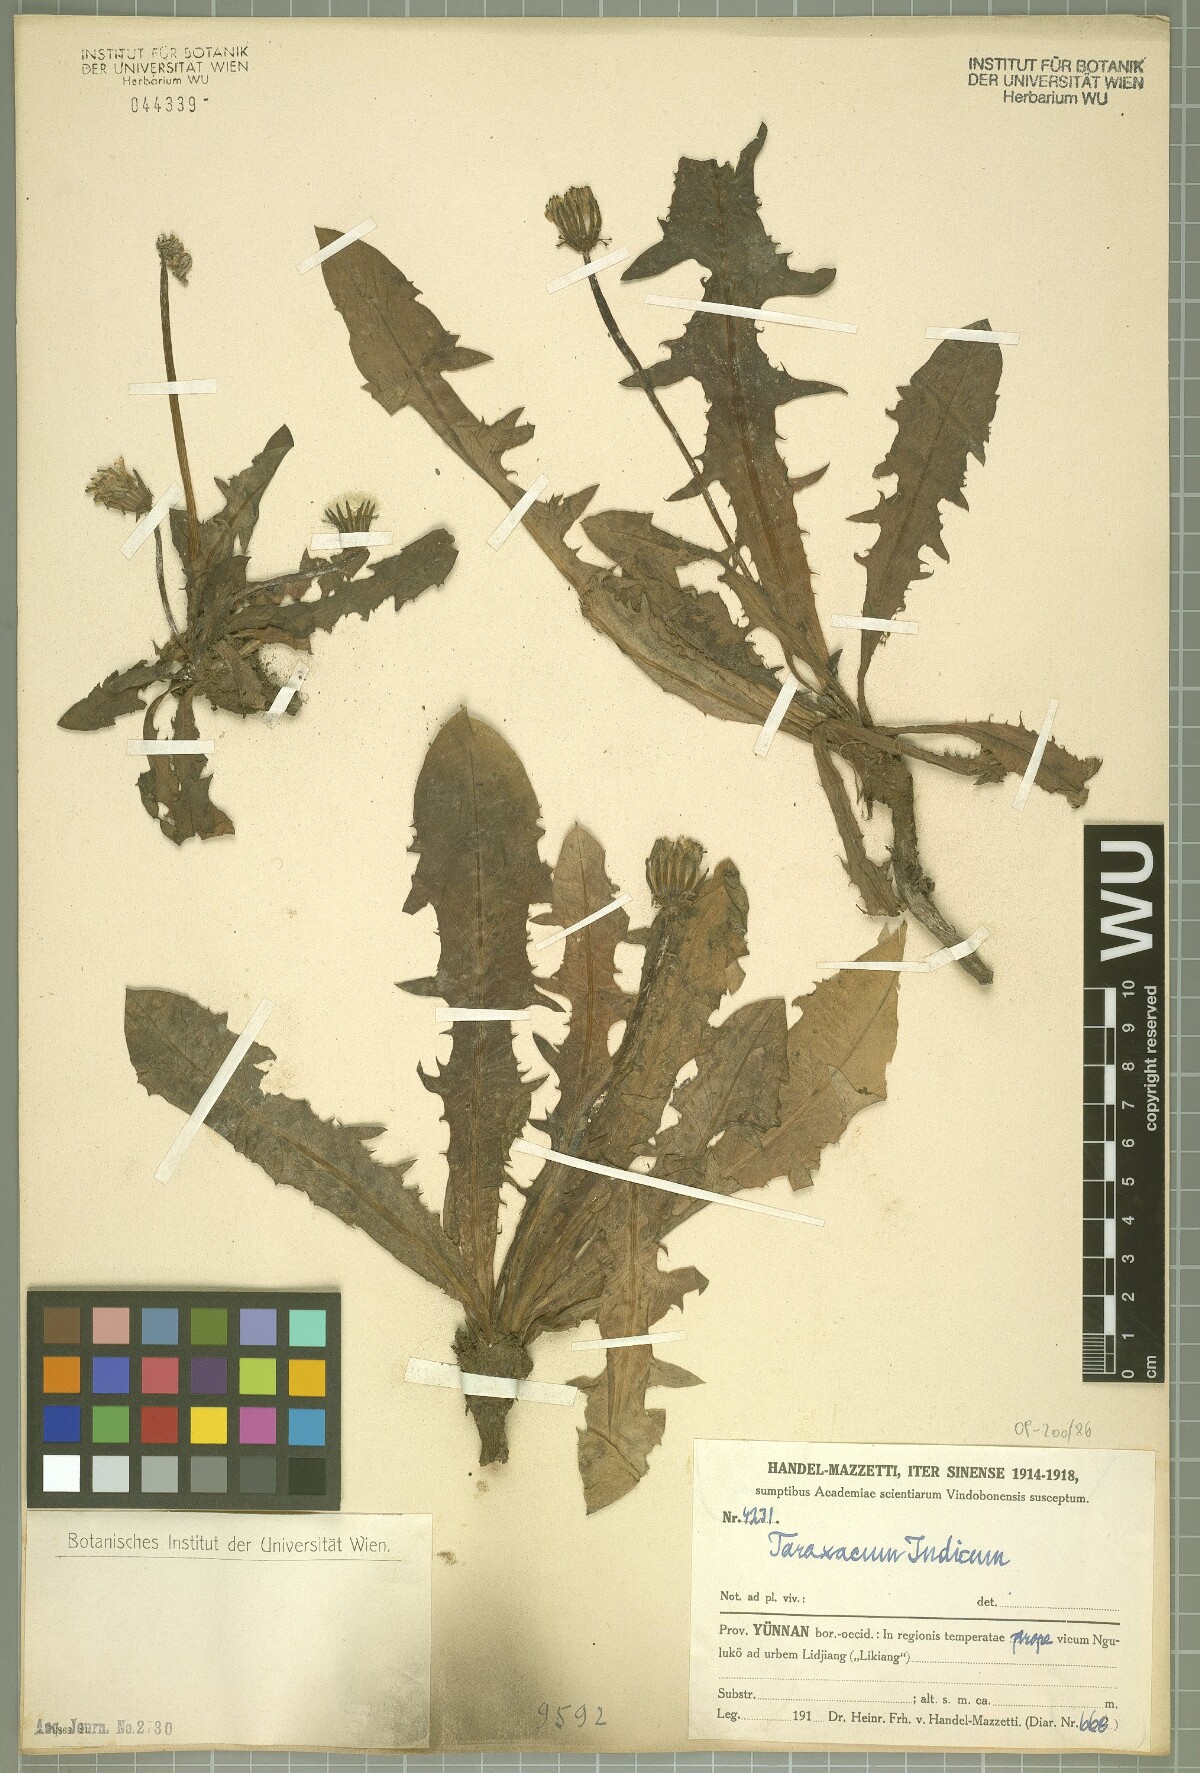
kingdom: Plantae
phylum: Tracheophyta
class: Magnoliopsida
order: Asterales
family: Asteraceae
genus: Taraxacum
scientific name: Taraxacum indicum
